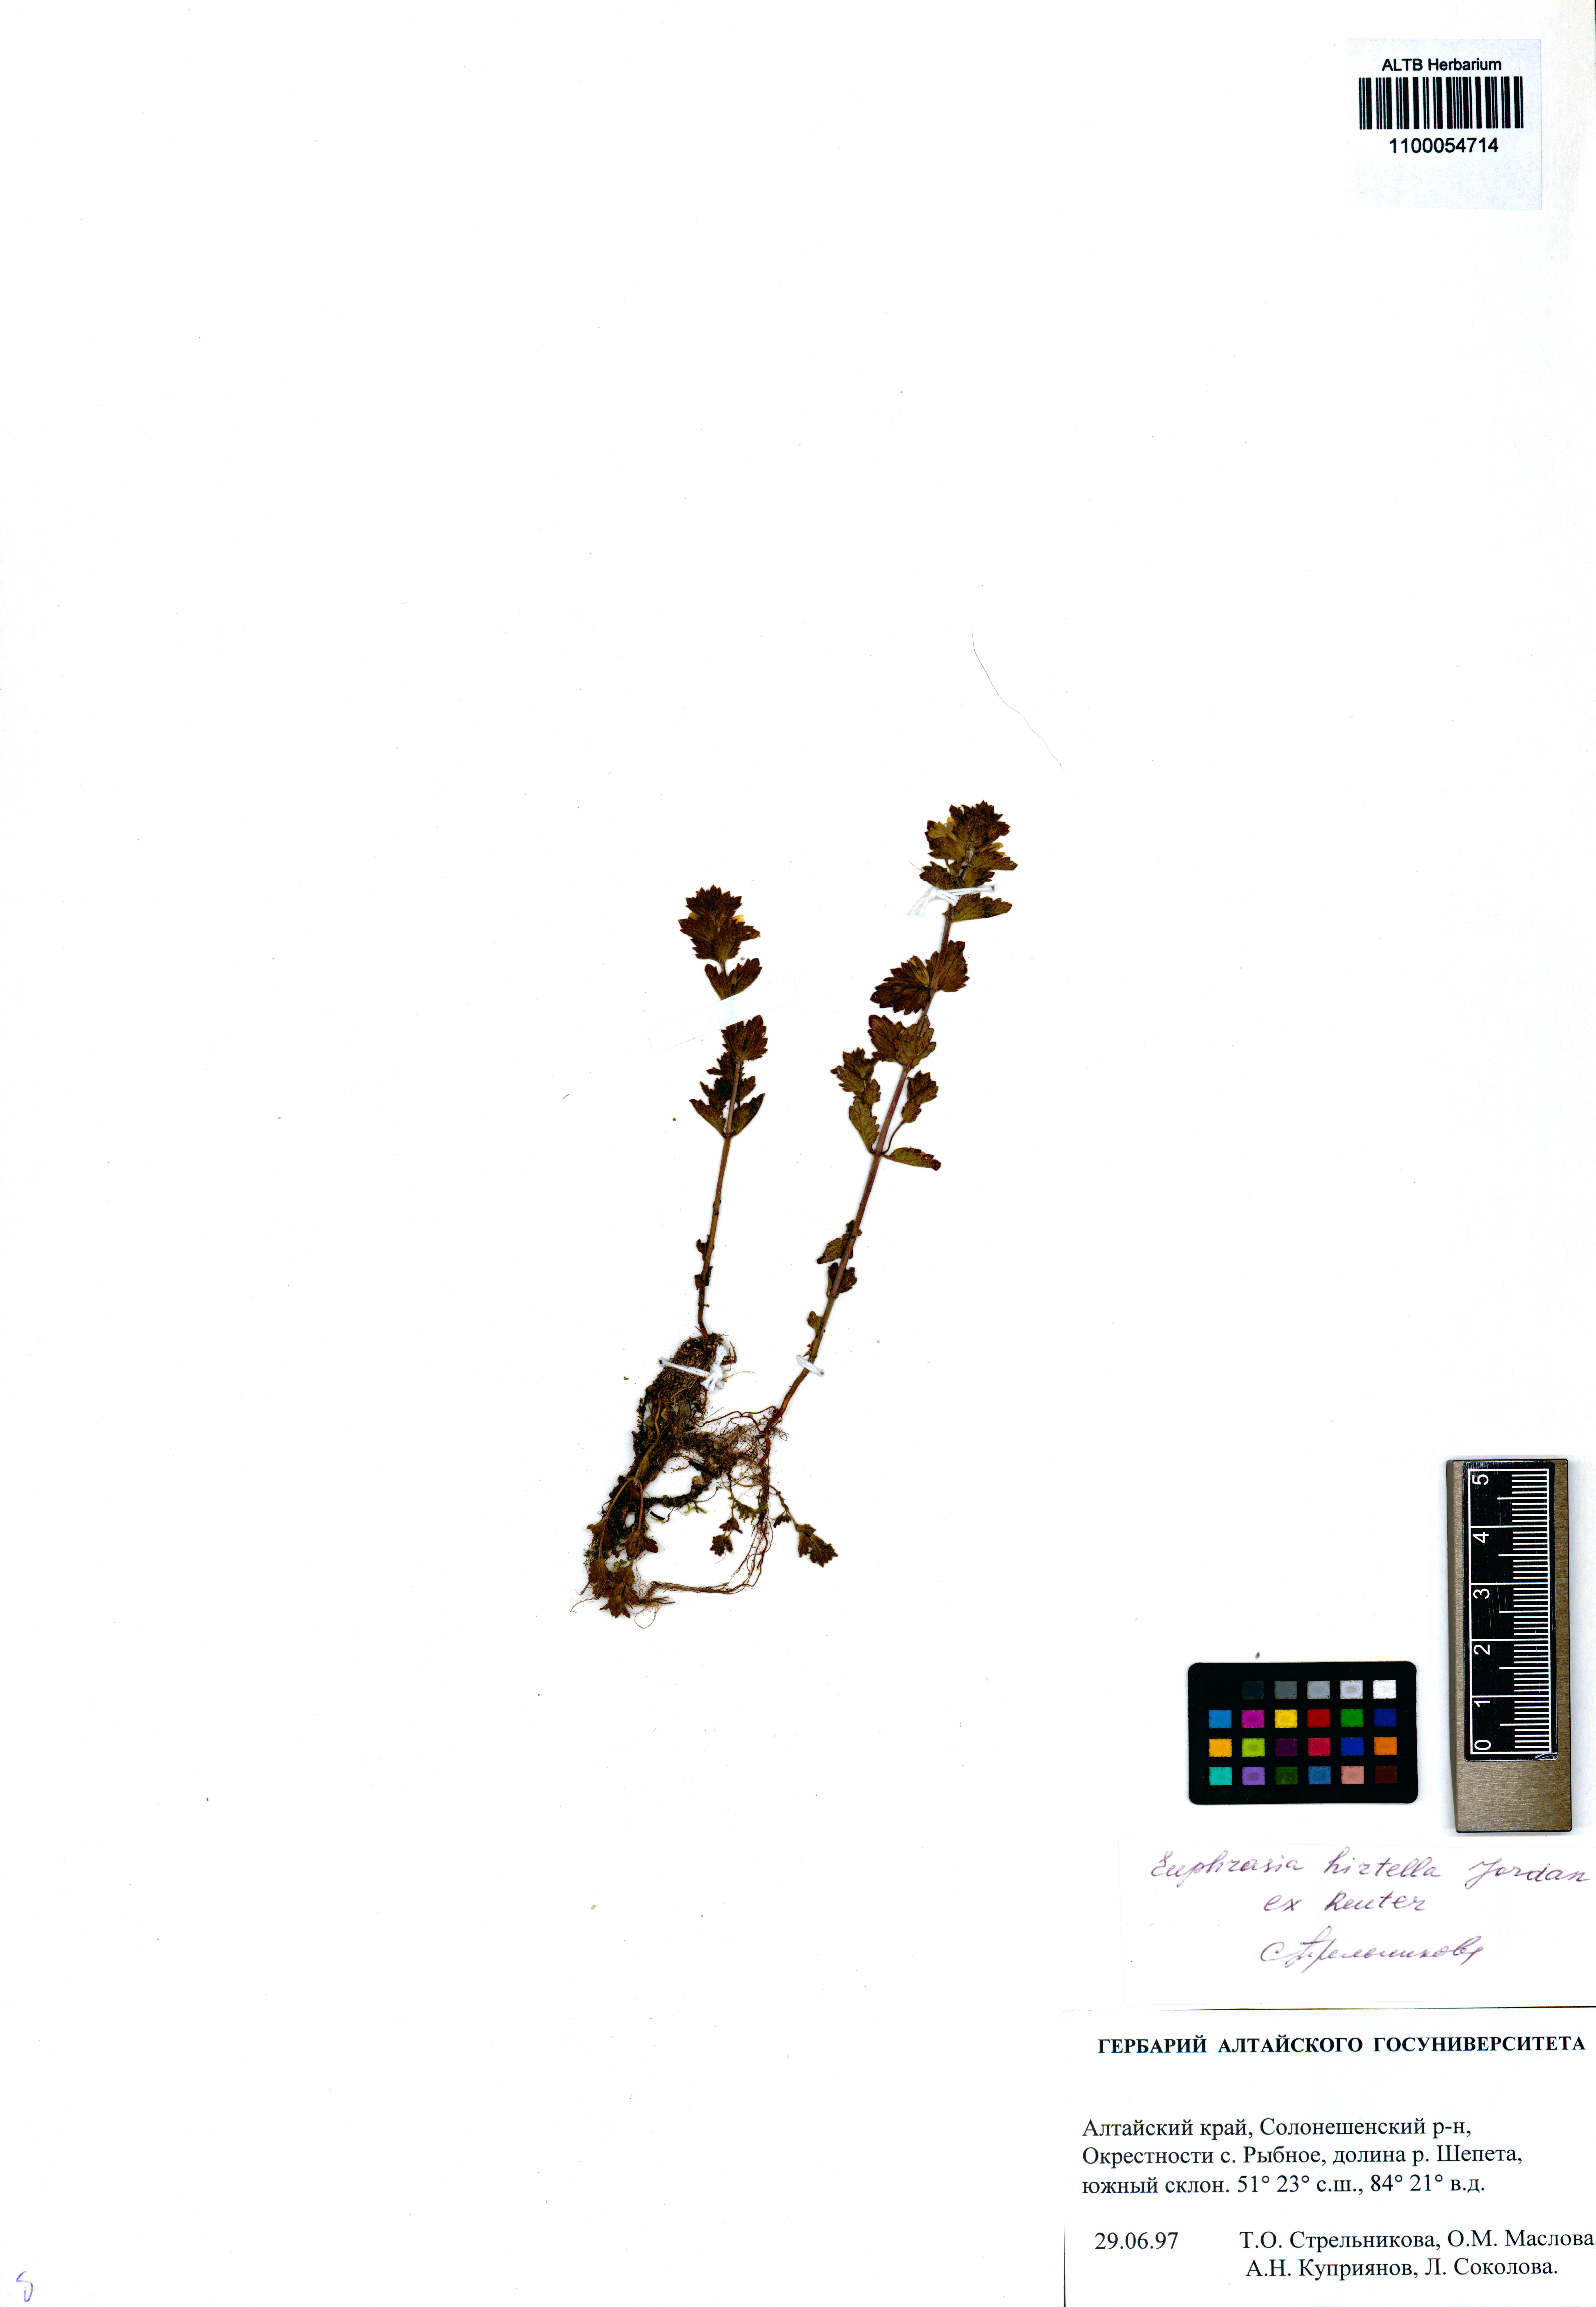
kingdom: Plantae
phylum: Tracheophyta
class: Magnoliopsida
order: Lamiales
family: Orobanchaceae
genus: Euphrasia
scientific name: Euphrasia hirtella
